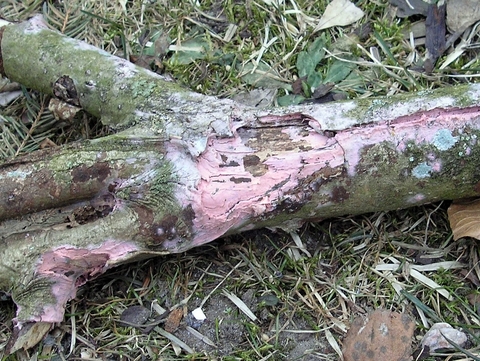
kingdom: Fungi
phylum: Basidiomycota
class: Agaricomycetes
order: Cantharellales
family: Tulasnellaceae
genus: Tulasnella
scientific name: Tulasnella violea
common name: violet ballonhinde
